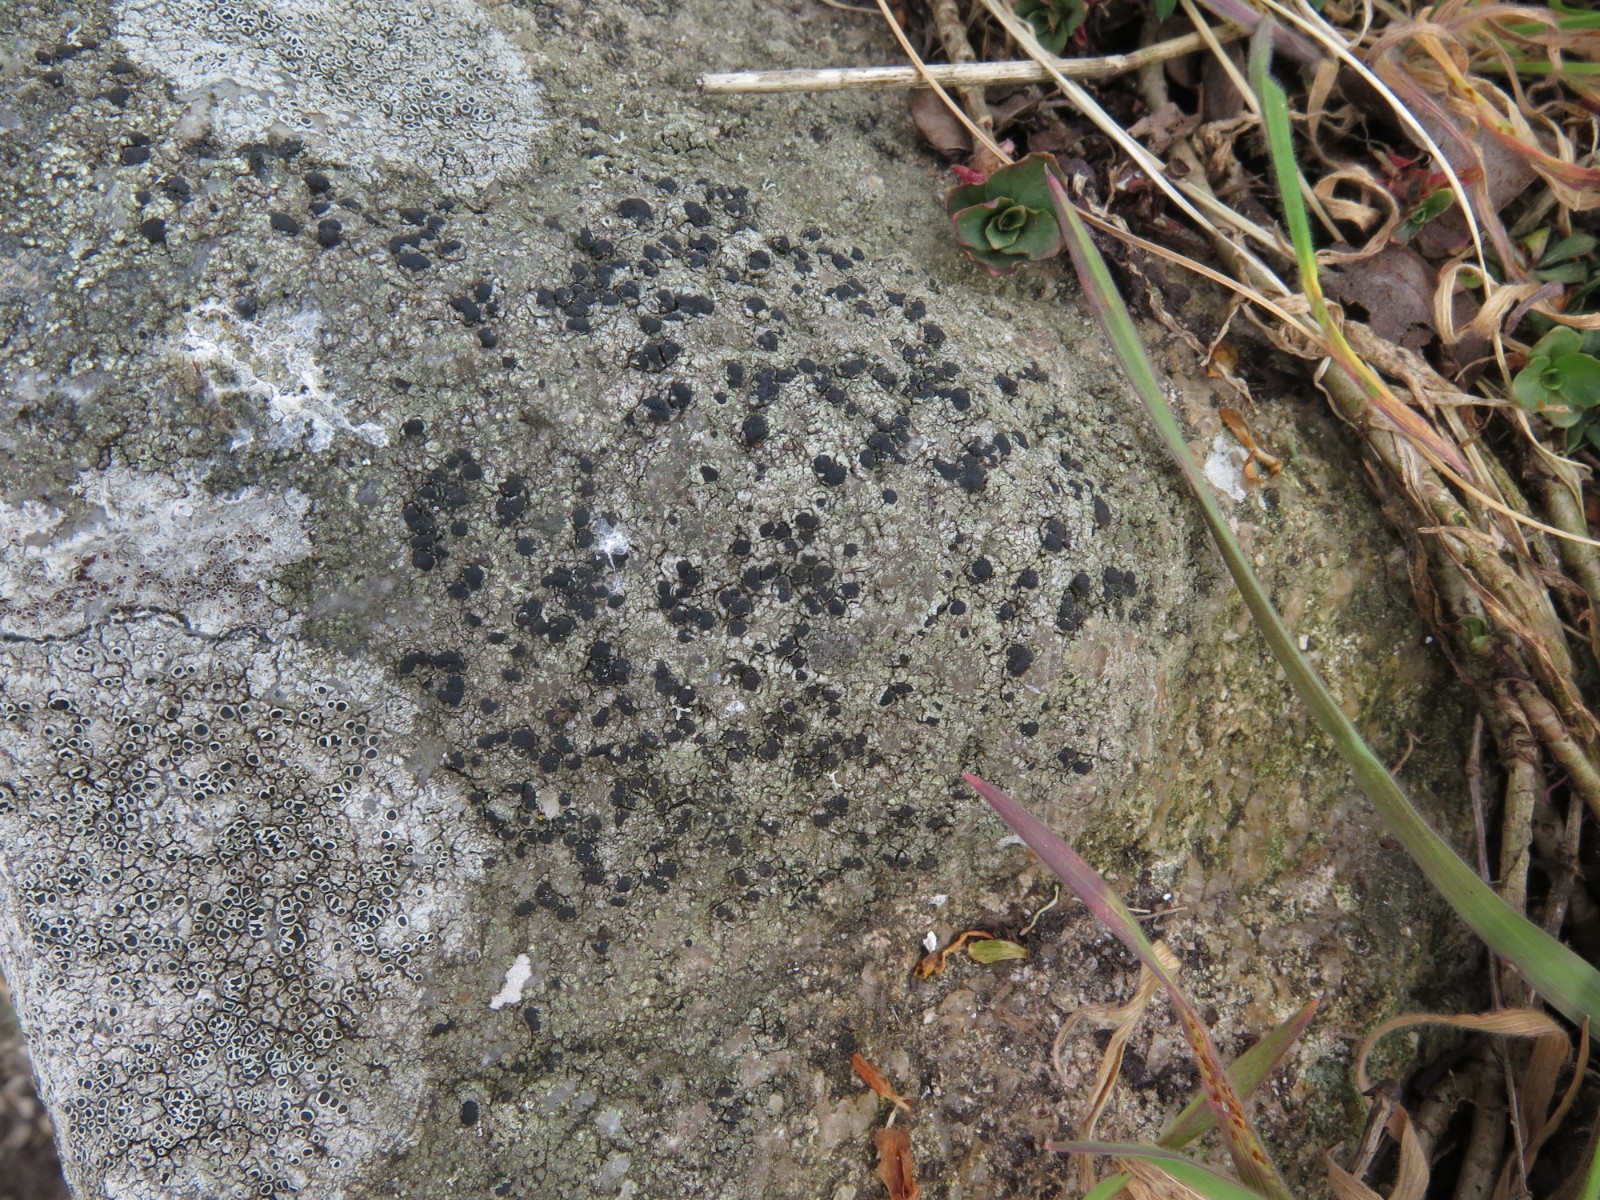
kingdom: Fungi
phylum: Ascomycota
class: Lecanoromycetes
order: Lecanorales
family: Lecanoraceae
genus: Lecidella
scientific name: Lecidella scabra
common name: skurvet skivelav
